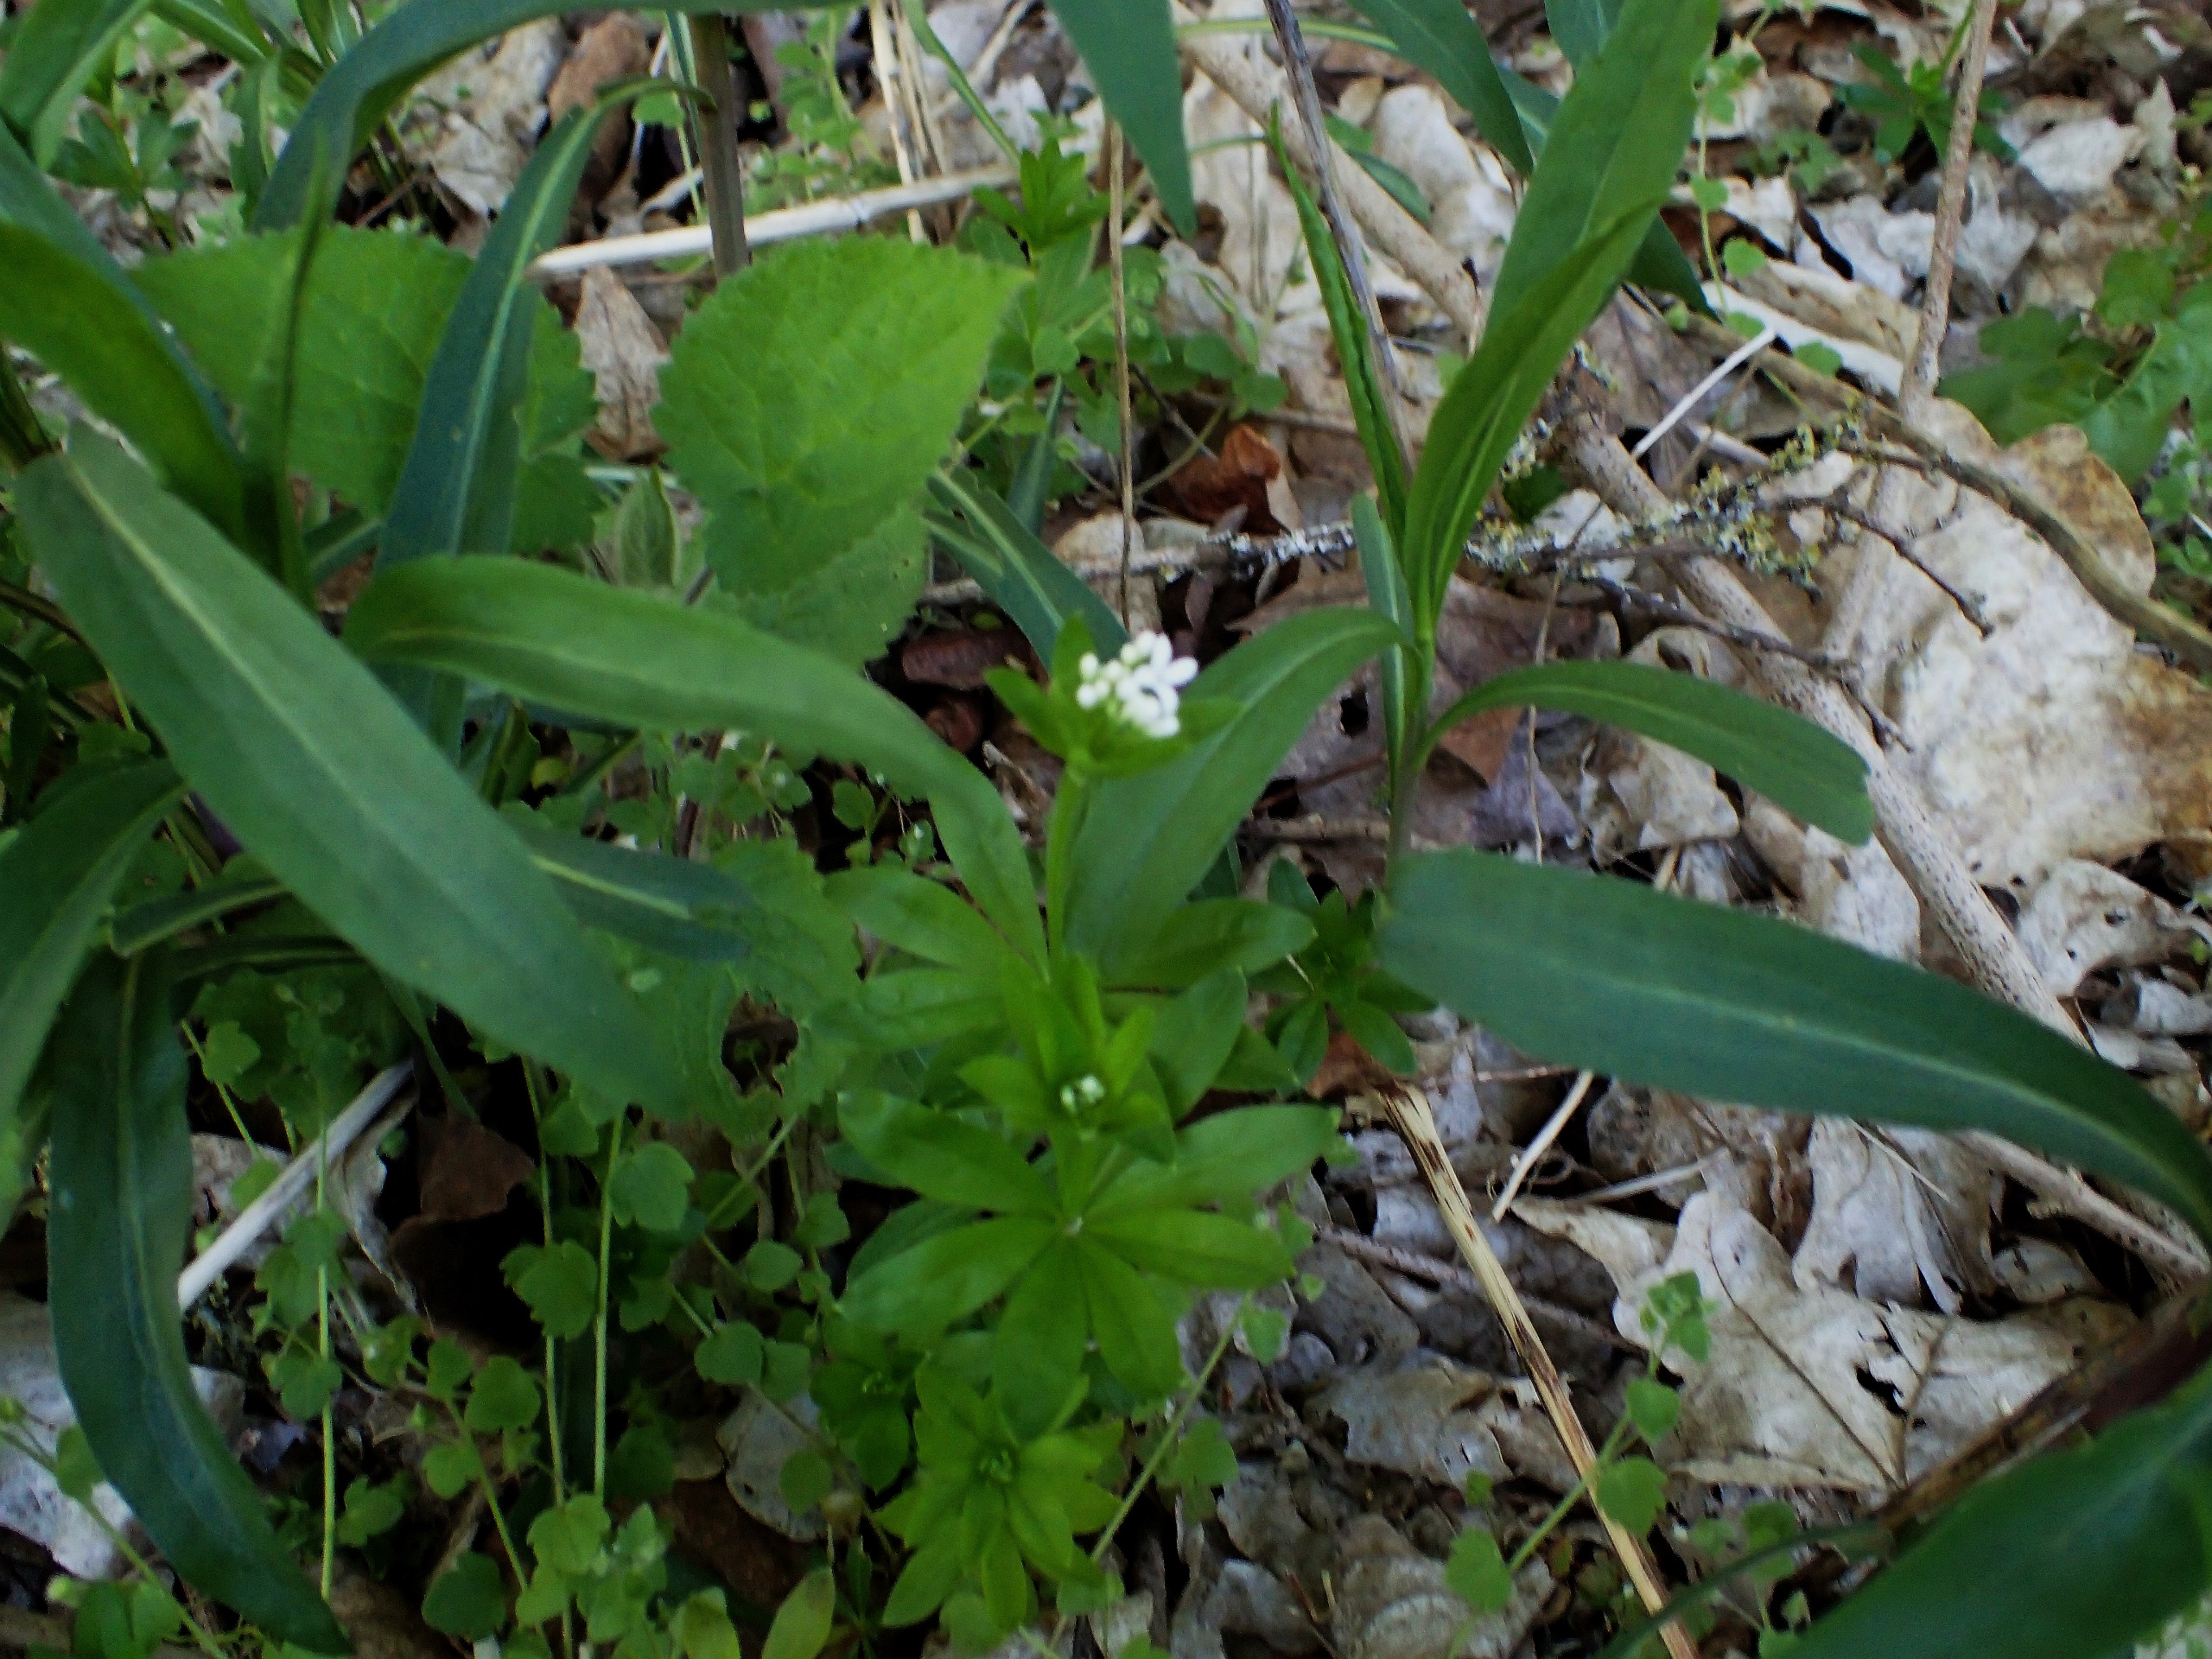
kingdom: Plantae
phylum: Tracheophyta
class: Magnoliopsida
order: Gentianales
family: Rubiaceae
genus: Galium
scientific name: Galium odoratum
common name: Skovmærke
